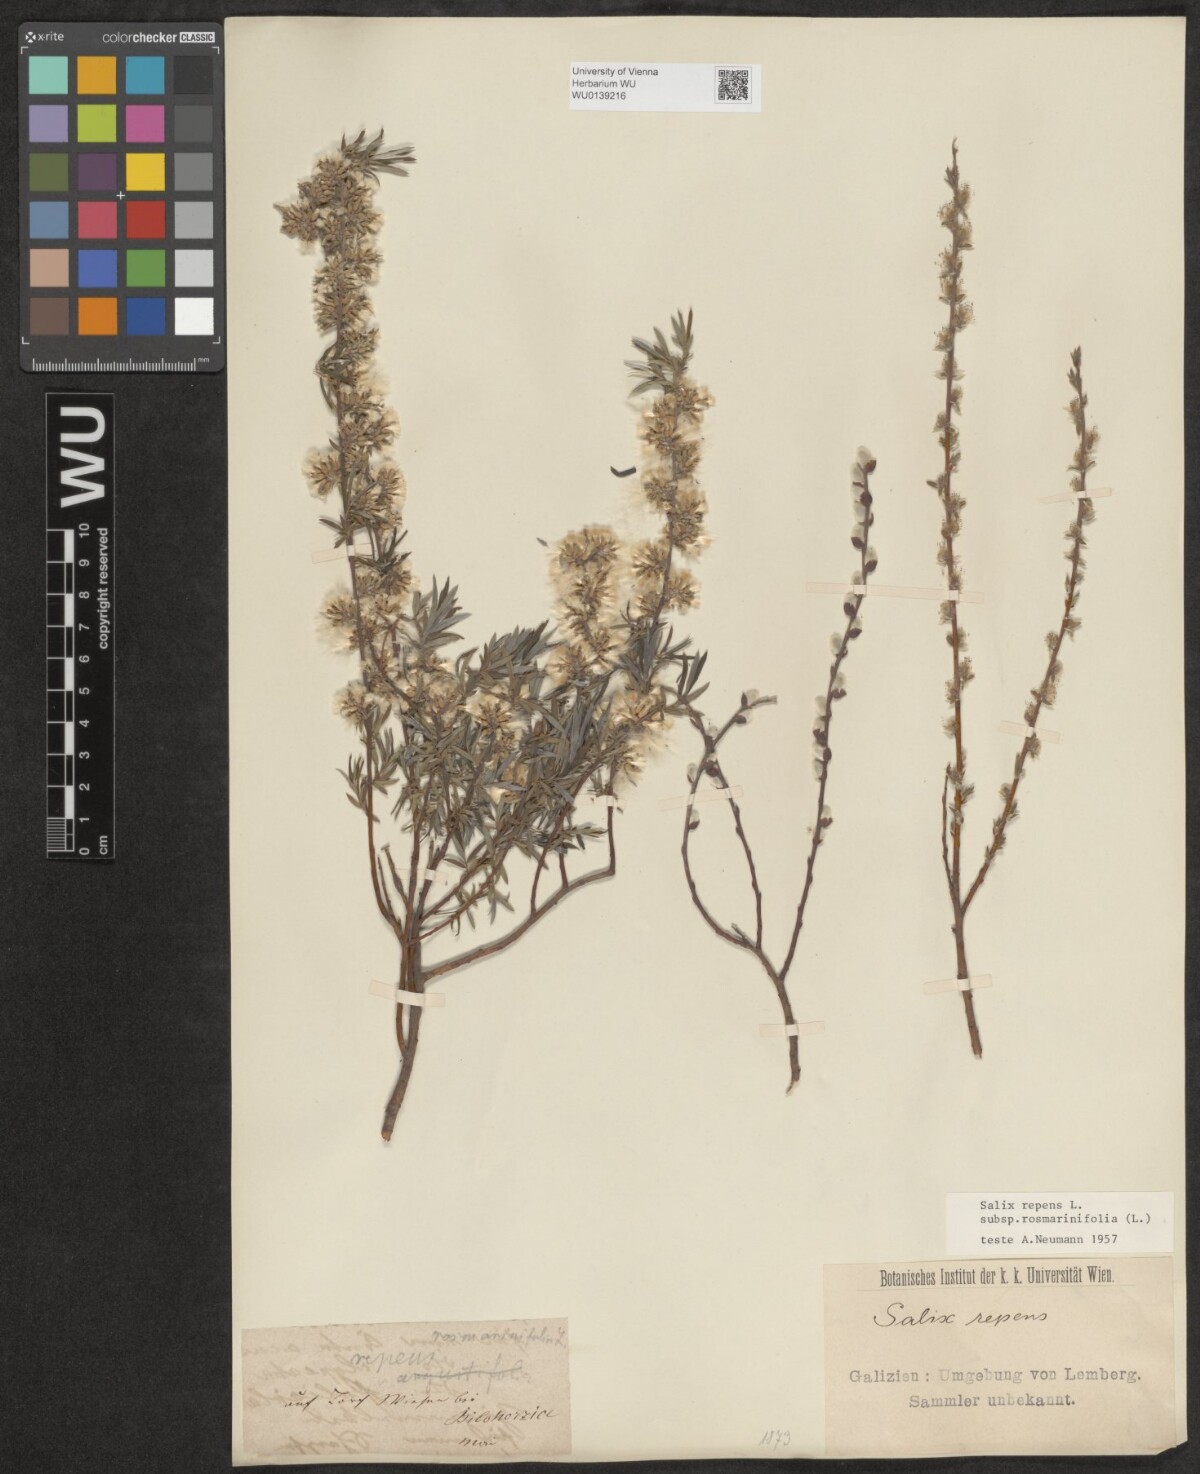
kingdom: Plantae
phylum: Tracheophyta
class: Magnoliopsida
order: Malpighiales
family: Salicaceae
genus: Salix
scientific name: Salix repens
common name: Creeping willow
